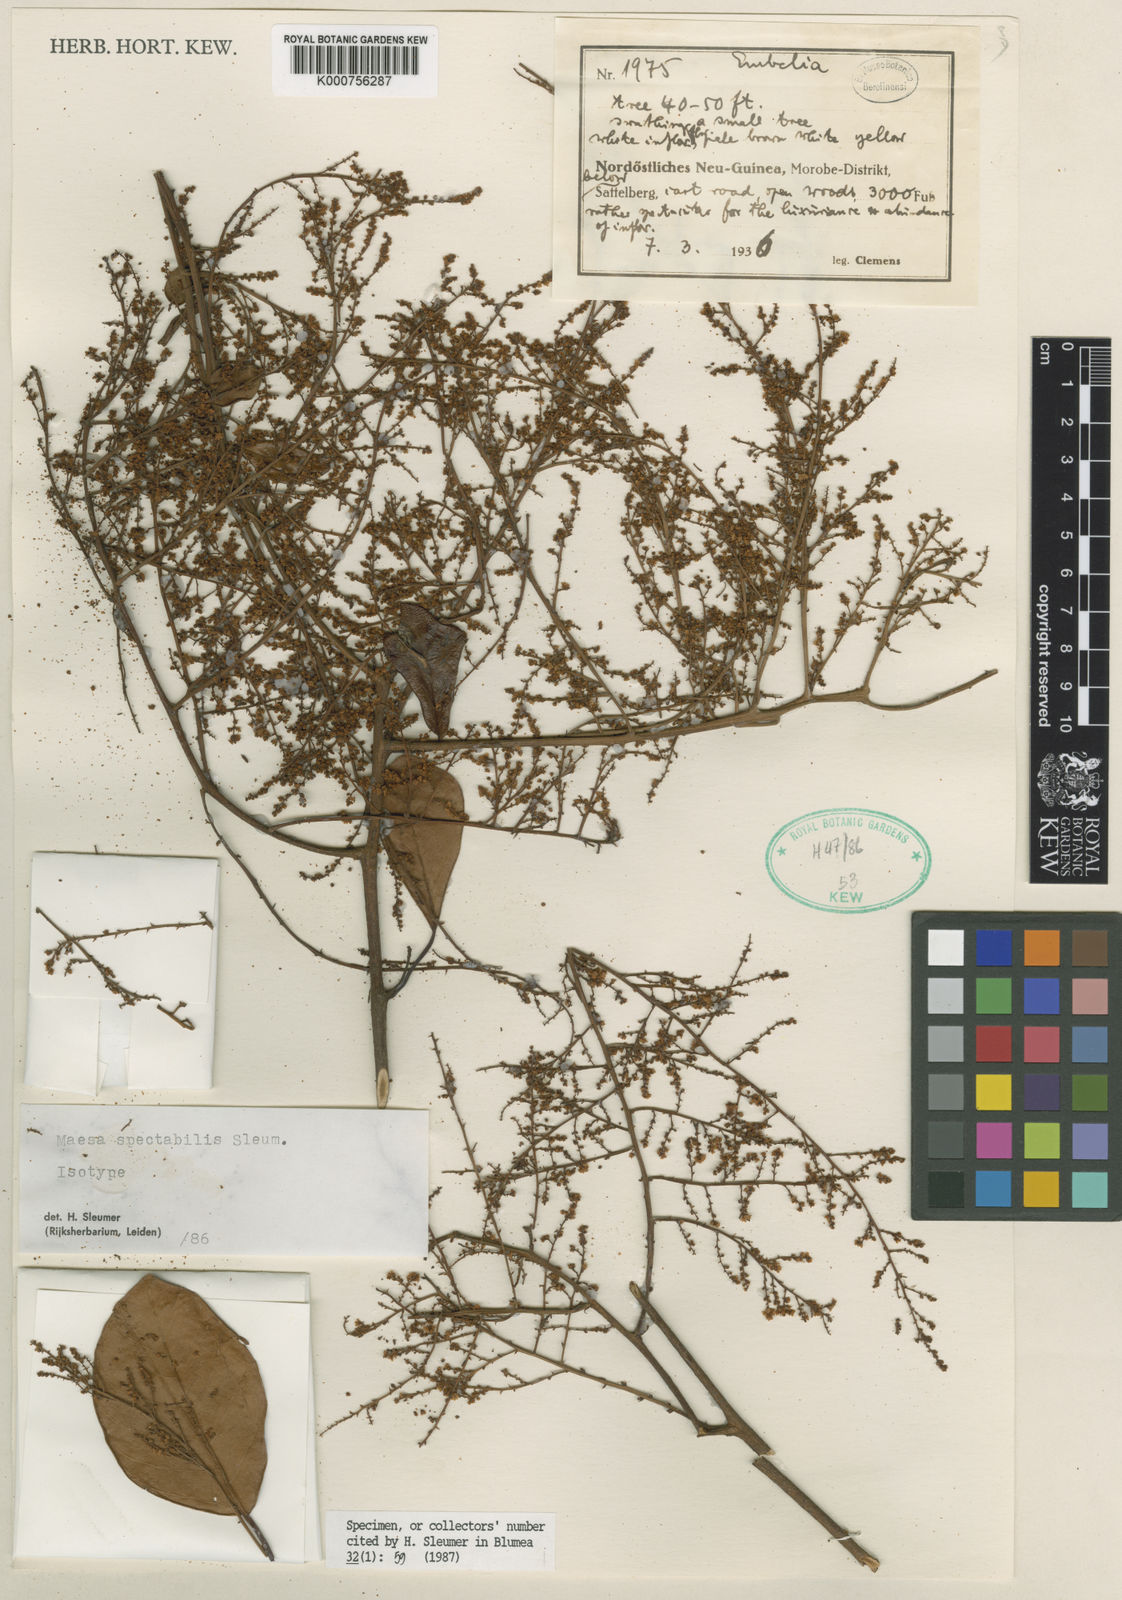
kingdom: Plantae
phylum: Tracheophyta
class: Magnoliopsida
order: Ericales
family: Primulaceae
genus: Maesa
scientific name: Maesa spectabilis
